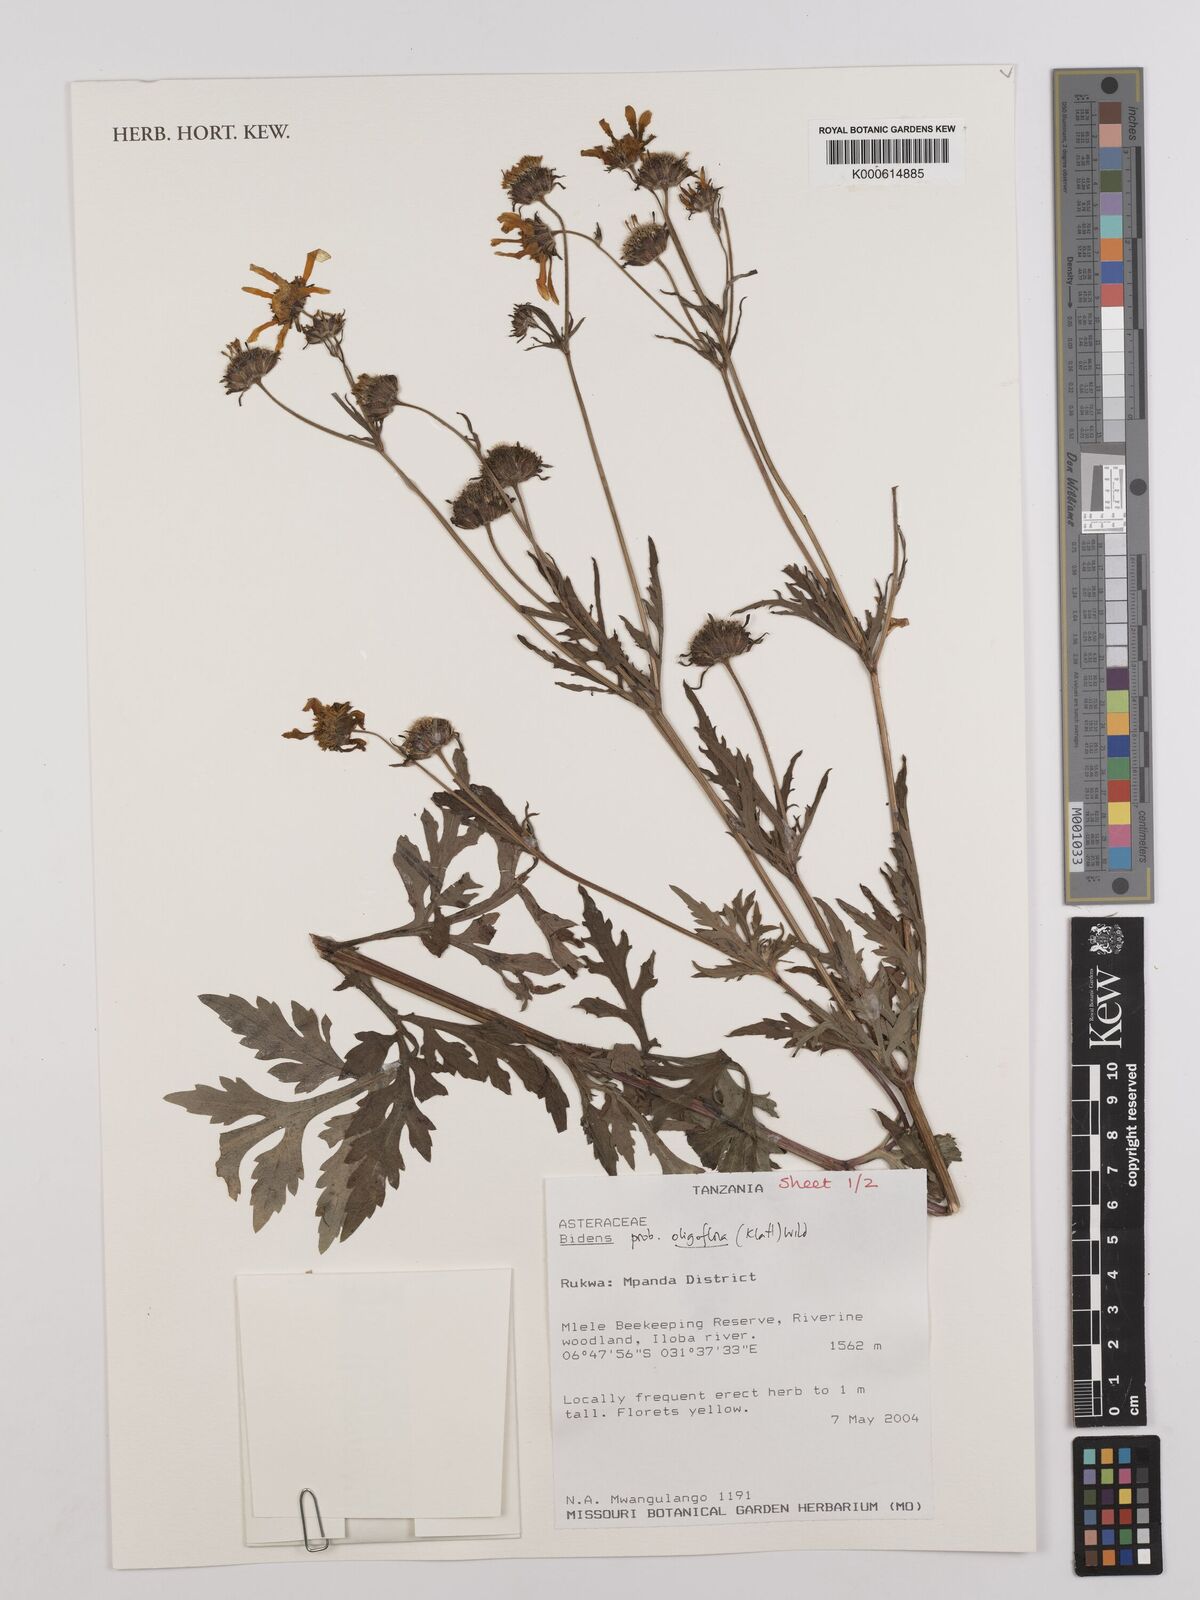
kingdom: Plantae
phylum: Tracheophyta
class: Magnoliopsida
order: Asterales
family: Asteraceae
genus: Bidens
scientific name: Bidens oligoflora
